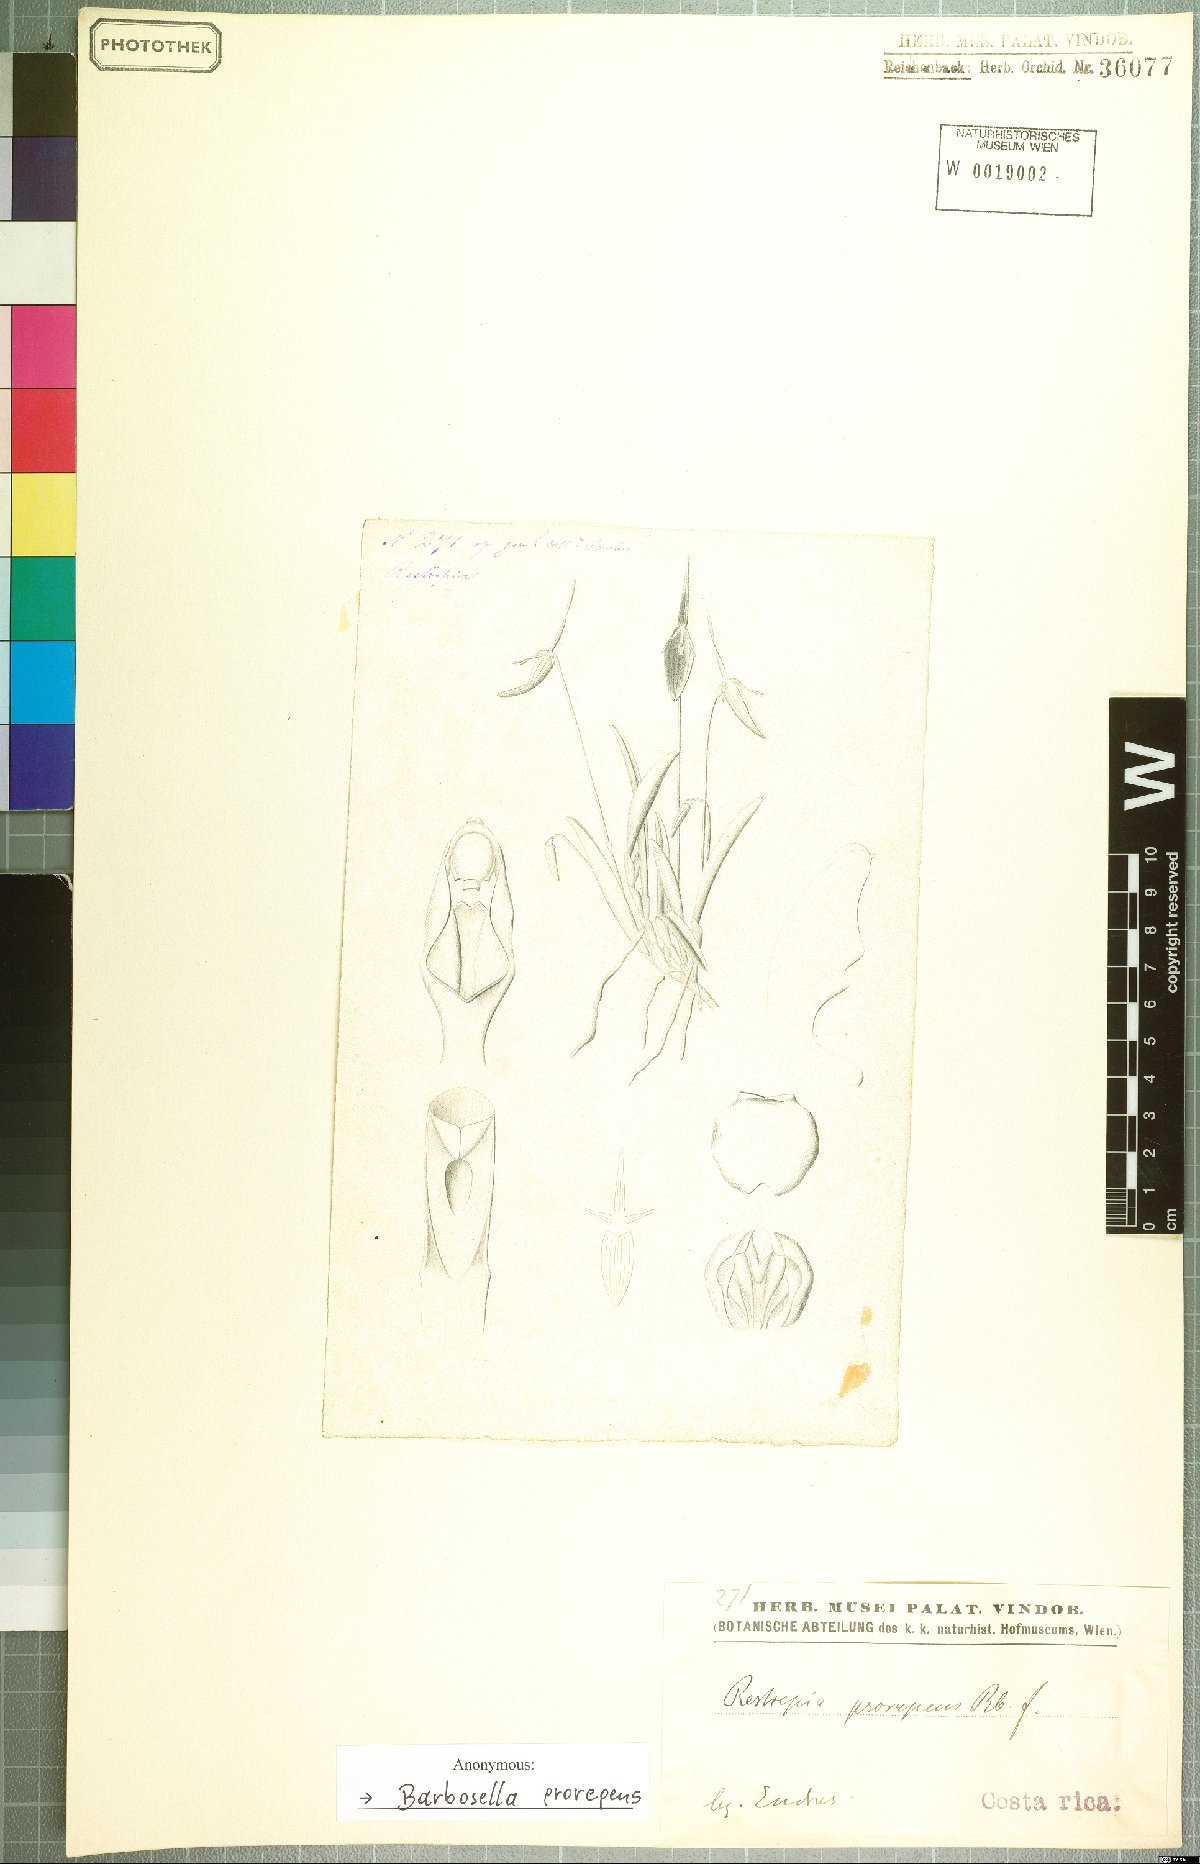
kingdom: Plantae
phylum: Tracheophyta
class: Liliopsida
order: Asparagales
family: Orchidaceae
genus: Barbosella
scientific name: Barbosella prorepens
